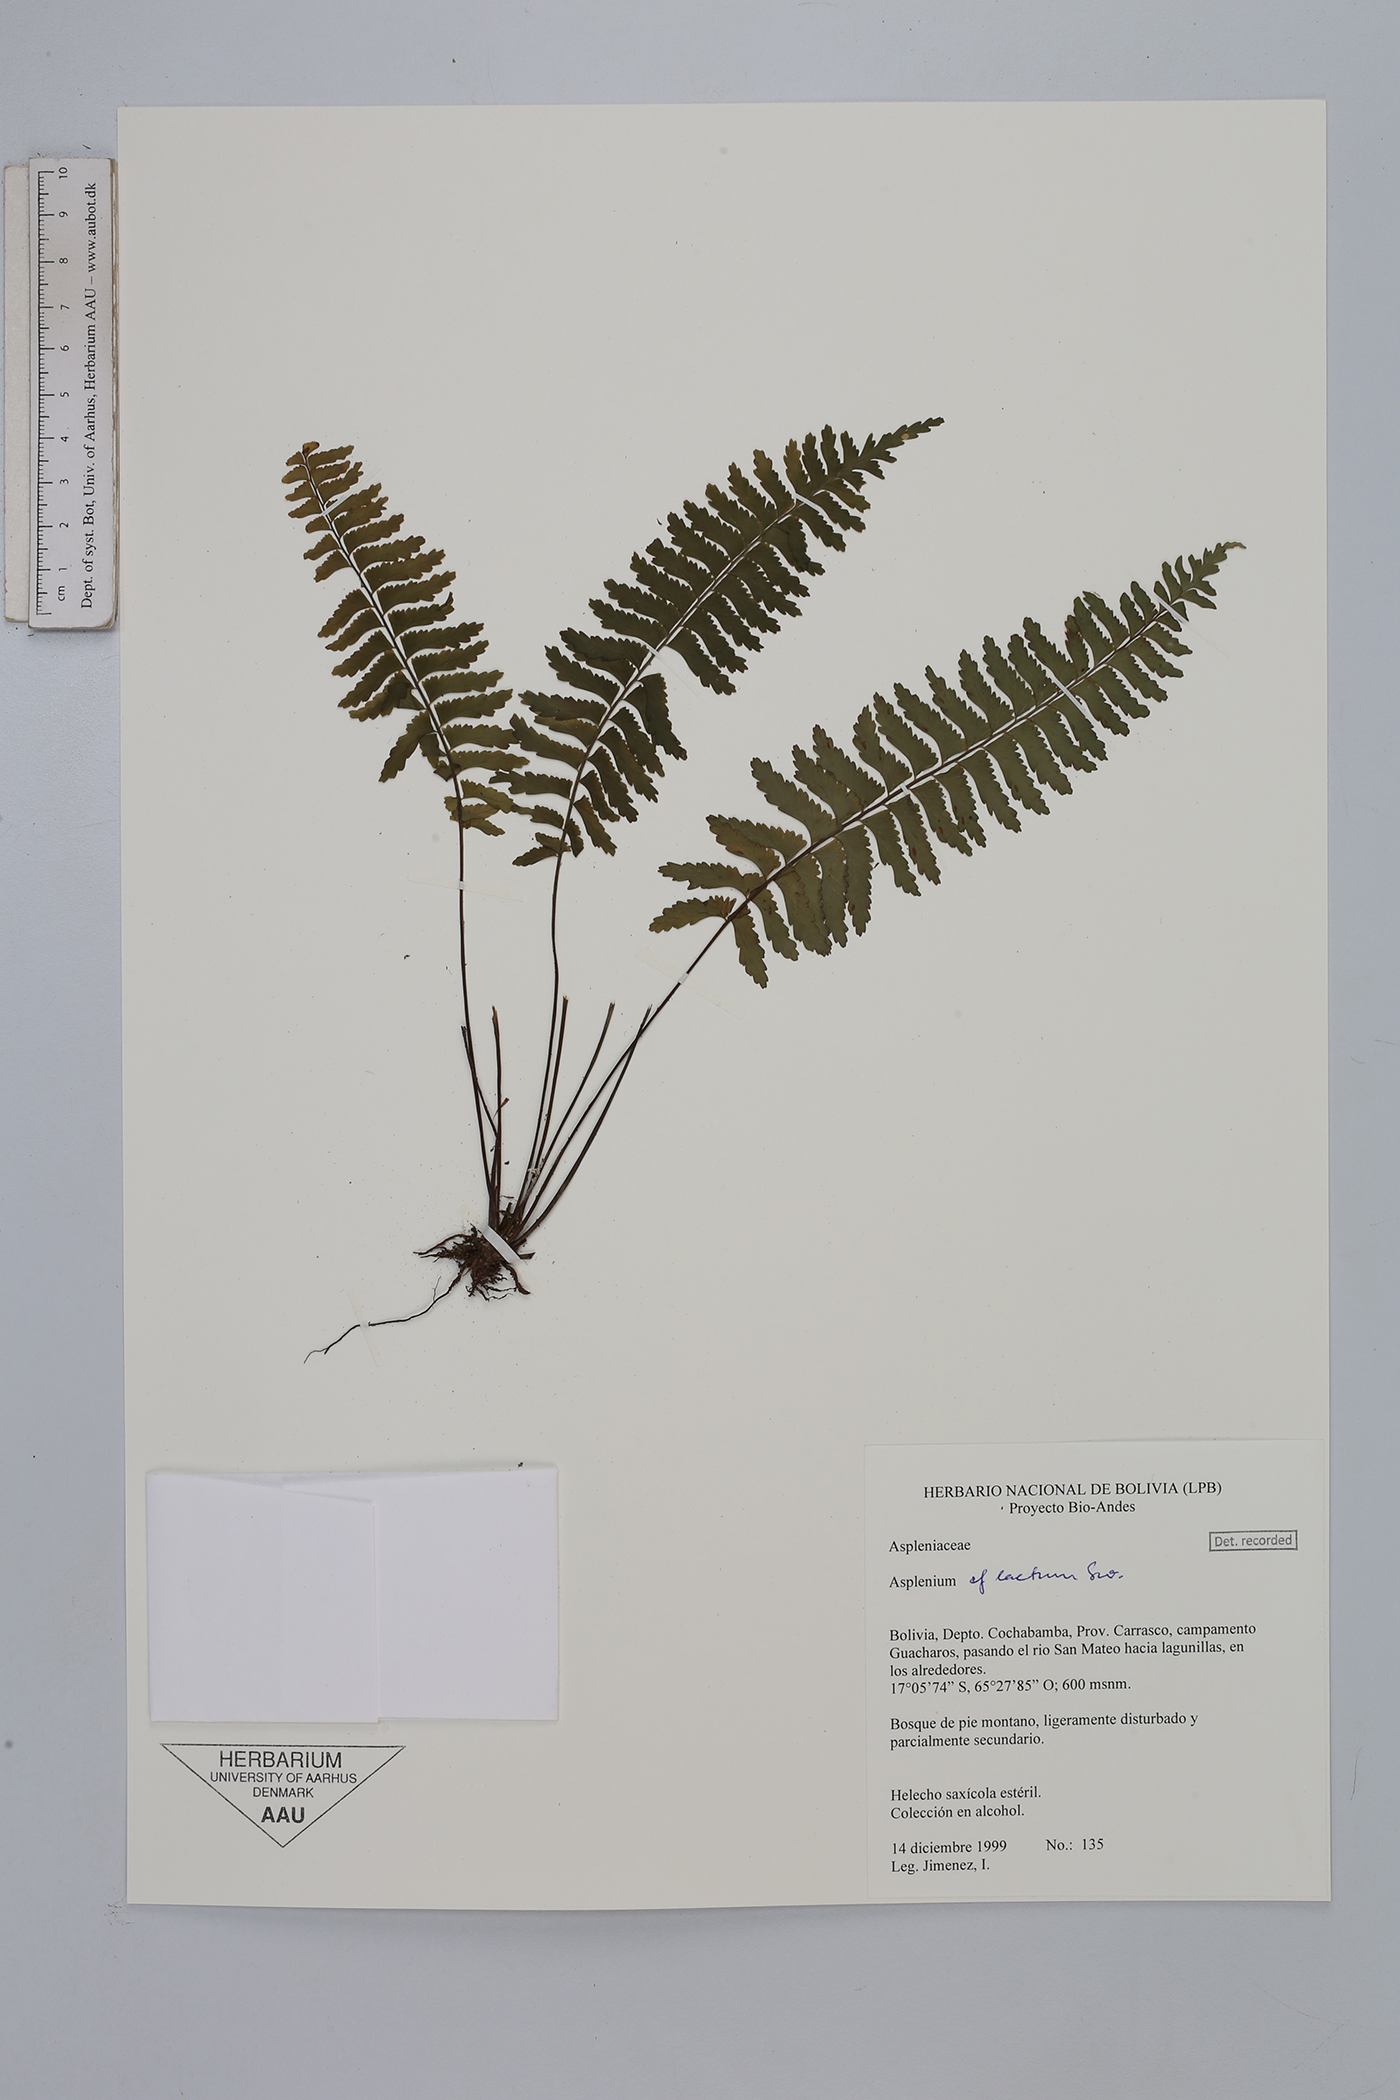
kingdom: Plantae
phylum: Tracheophyta
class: Polypodiopsida
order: Polypodiales
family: Aspleniaceae
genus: Hymenasplenium
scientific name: Hymenasplenium laetum
